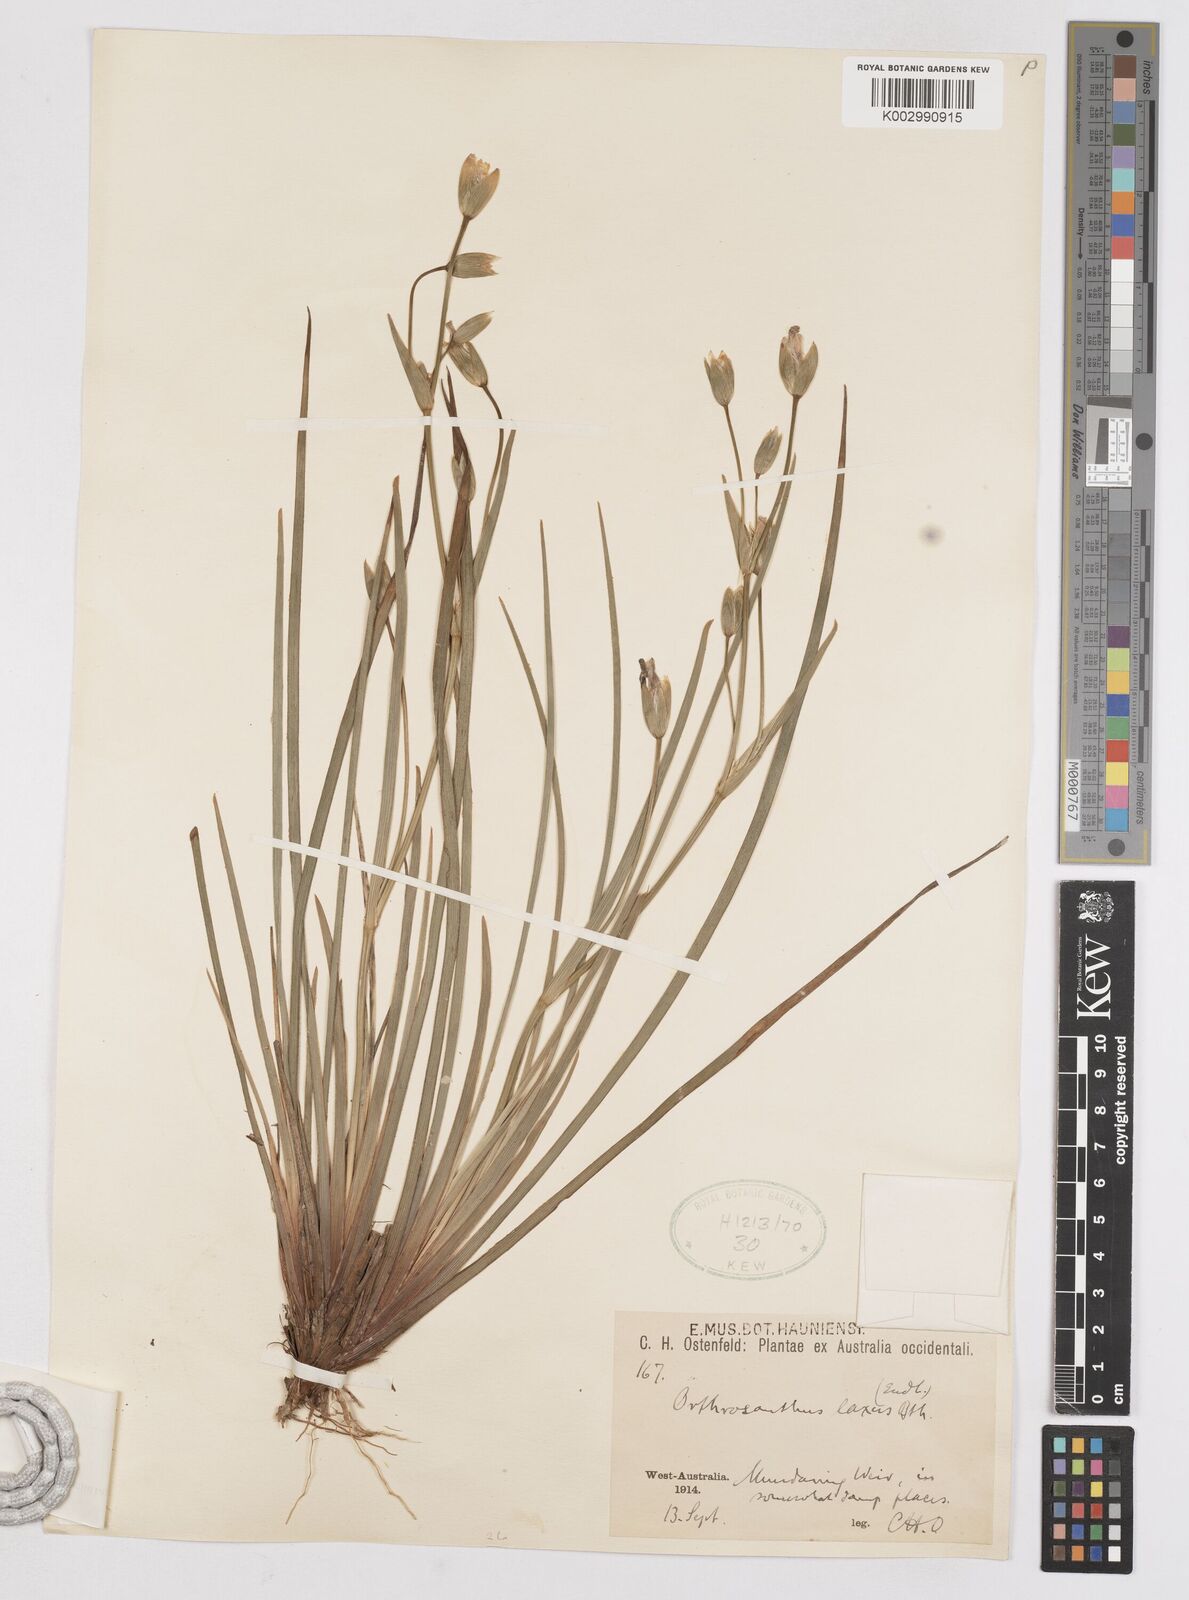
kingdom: Plantae
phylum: Tracheophyta
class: Liliopsida
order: Asparagales
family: Iridaceae
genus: Orthrosanthus
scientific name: Orthrosanthus laxus
